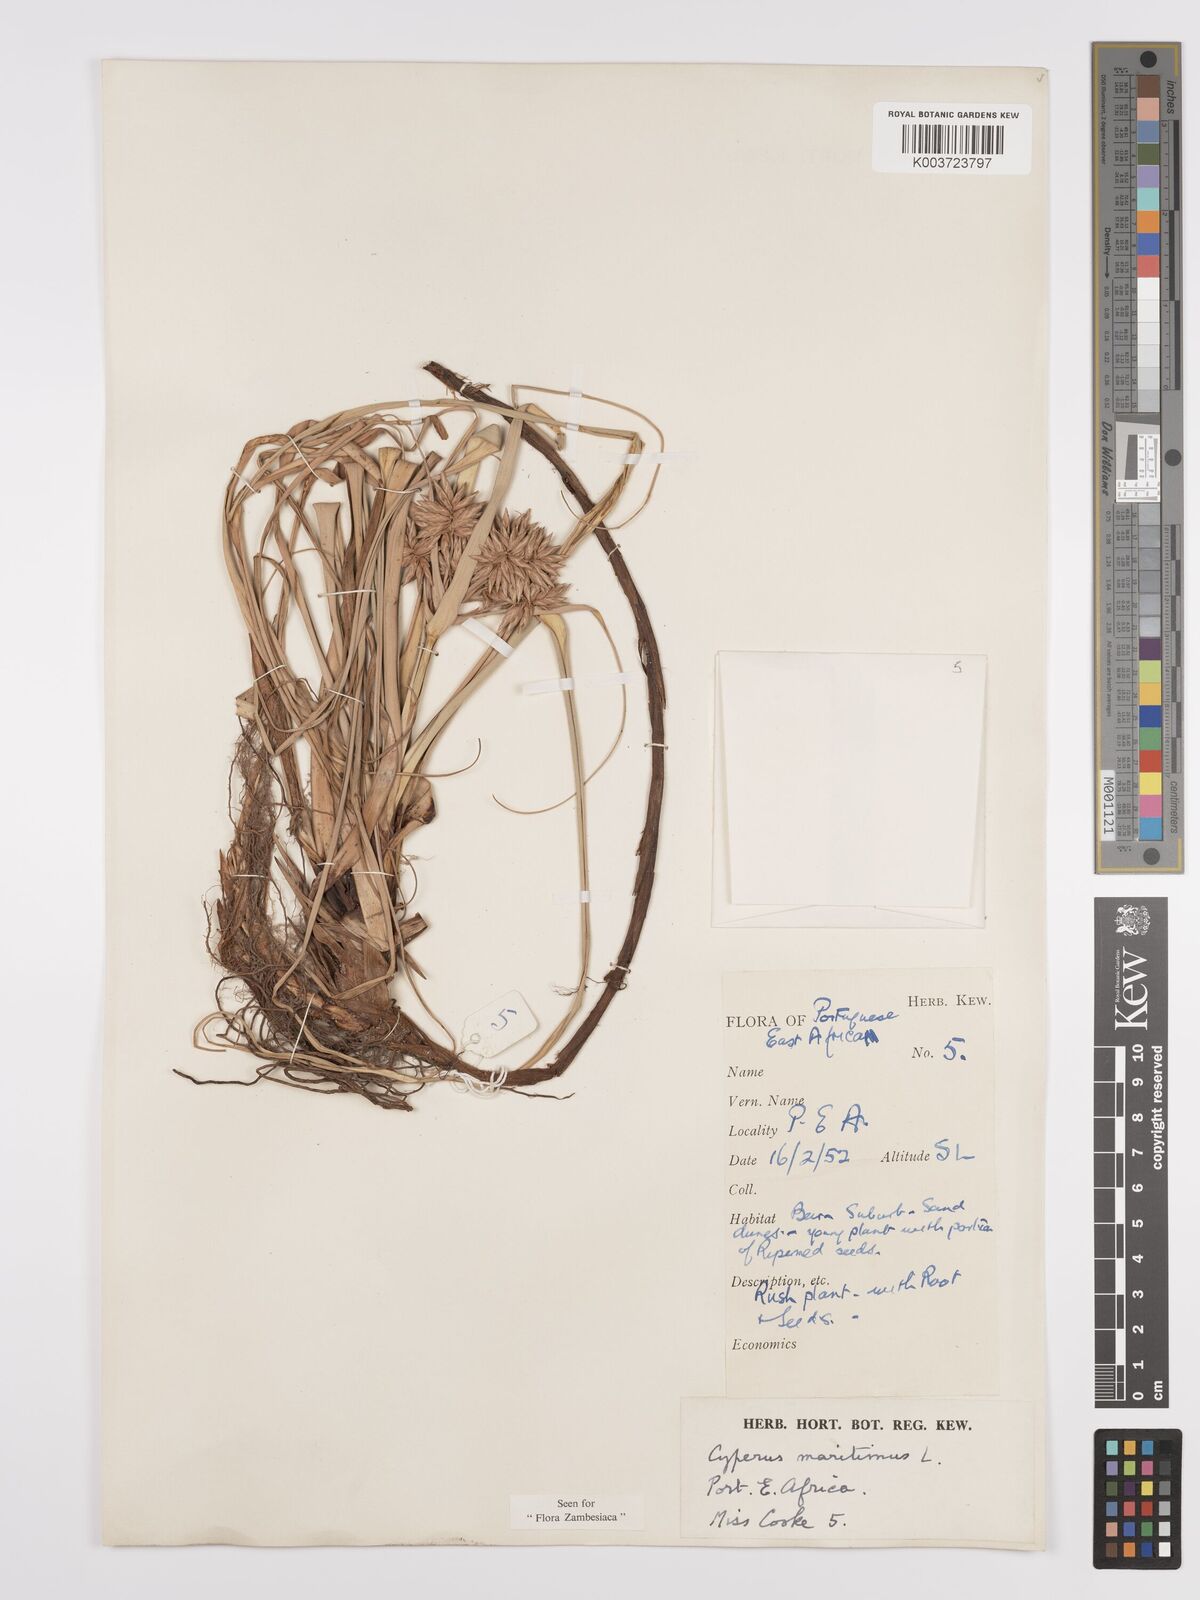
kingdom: Plantae
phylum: Tracheophyta
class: Liliopsida
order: Poales
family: Cyperaceae
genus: Cyperus
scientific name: Cyperus crassipes
